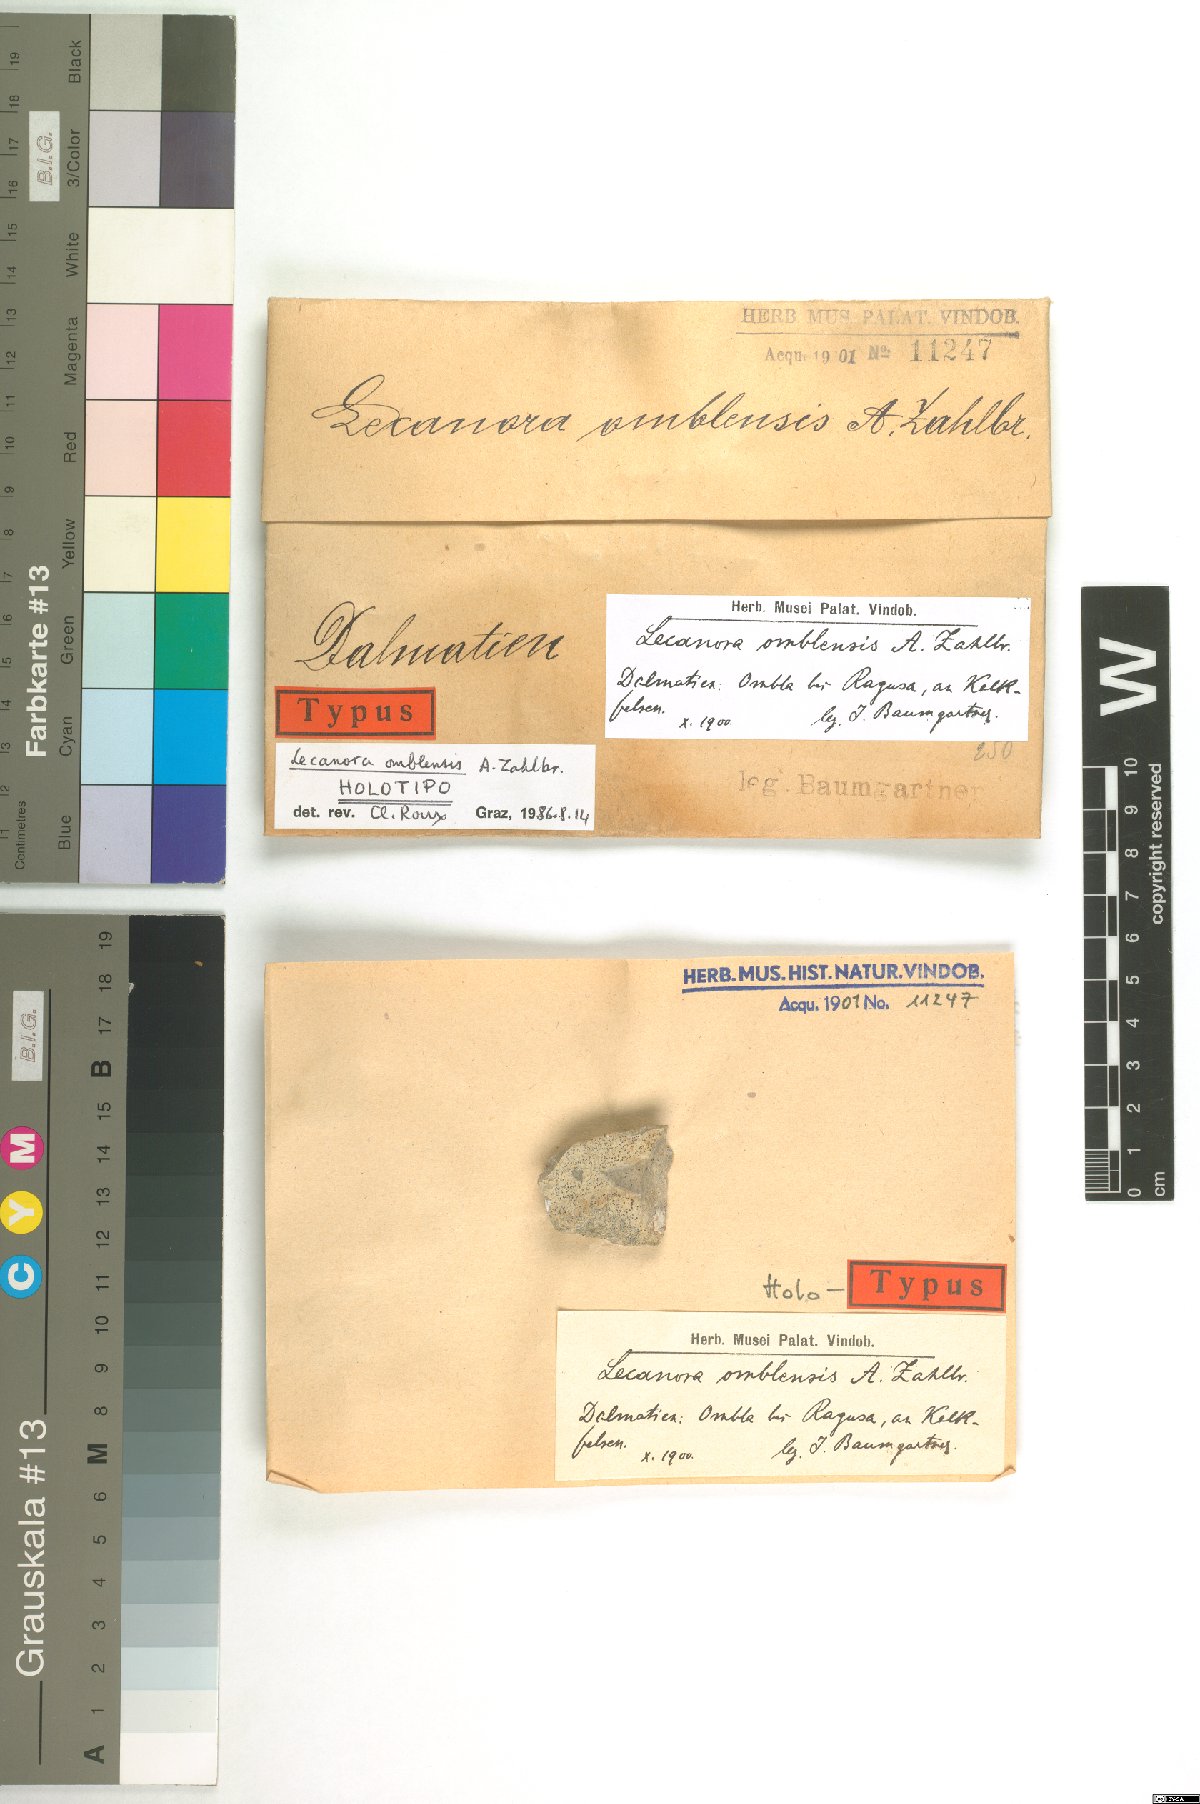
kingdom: Fungi
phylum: Ascomycota
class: Lecanoromycetes
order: Lecanorales
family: Lecanoraceae
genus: Lecanora
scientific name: Lecanora
